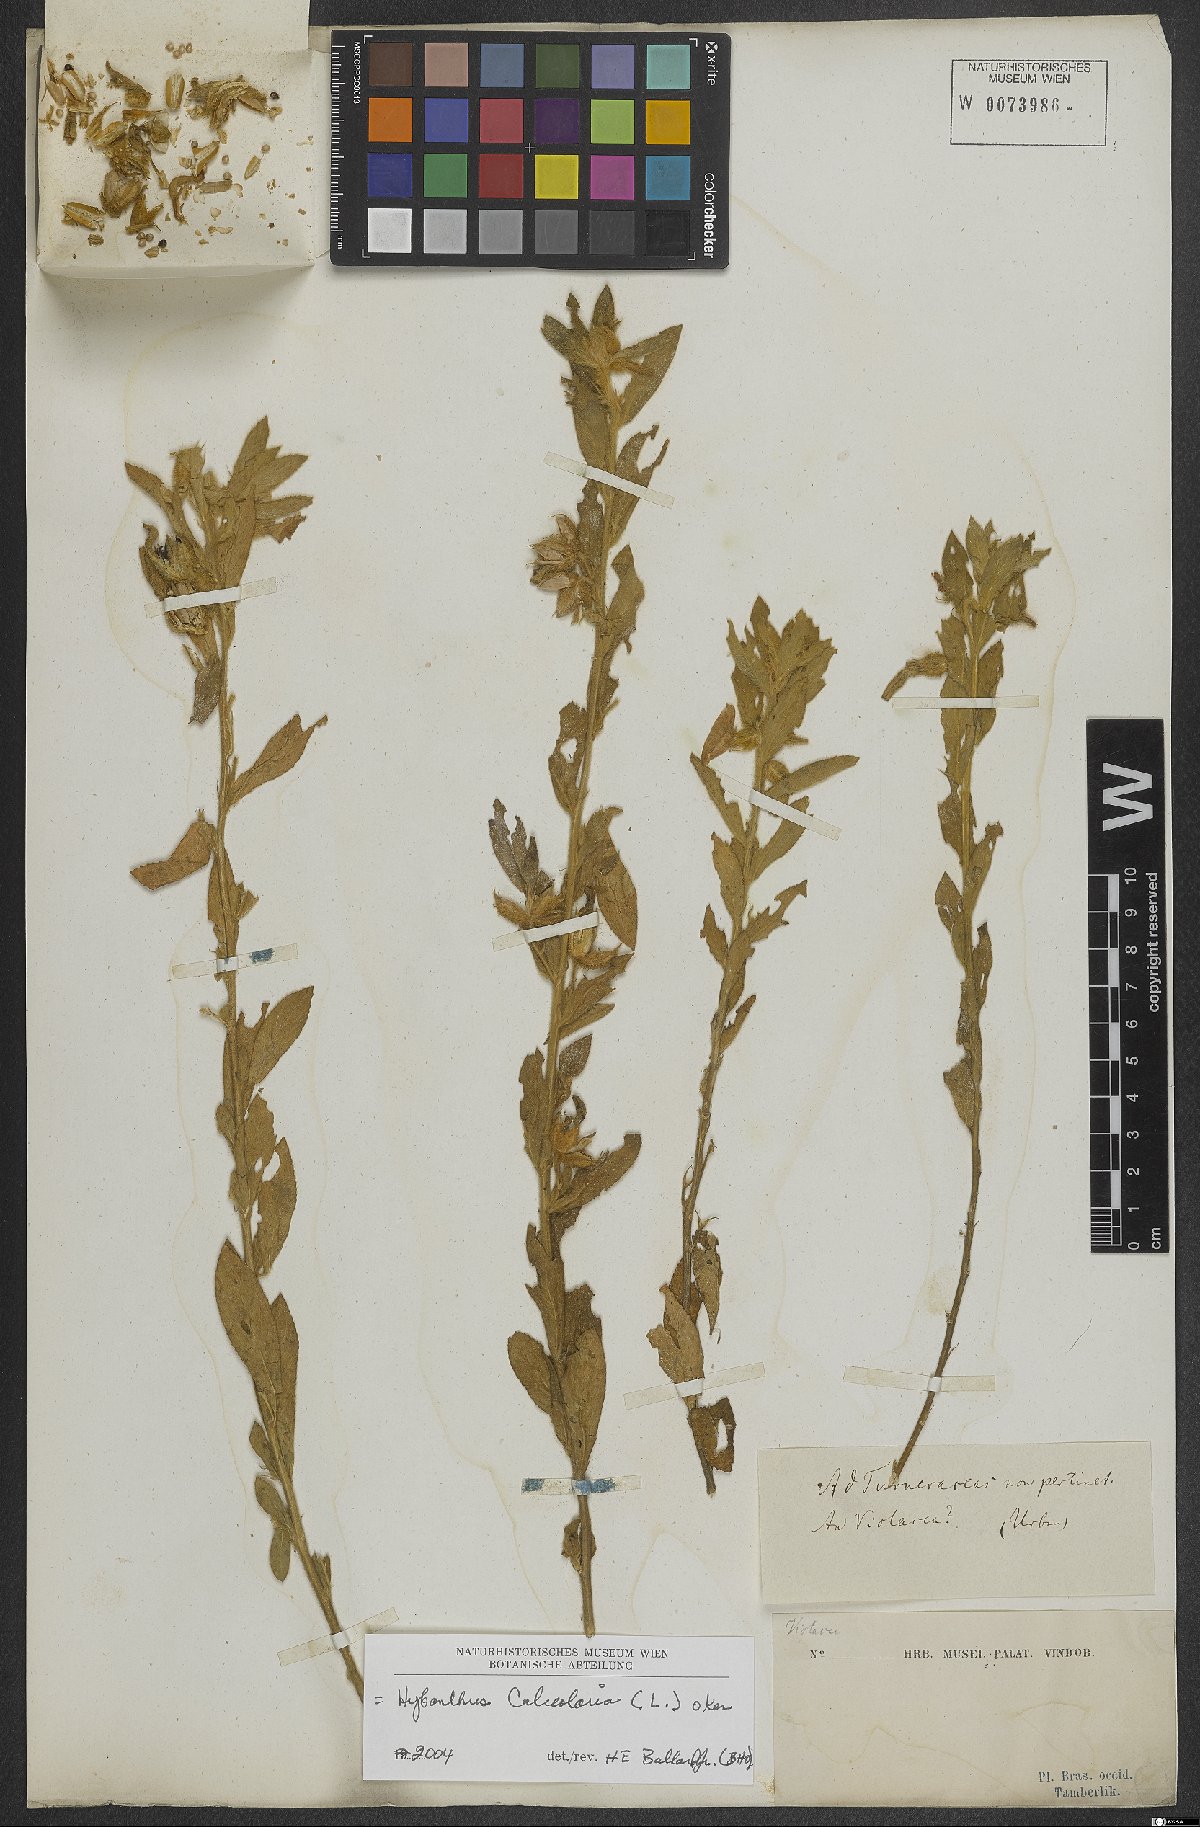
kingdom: Plantae
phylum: Tracheophyta
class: Magnoliopsida
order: Malpighiales
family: Violaceae
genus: Pombalia
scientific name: Pombalia calceolaria
